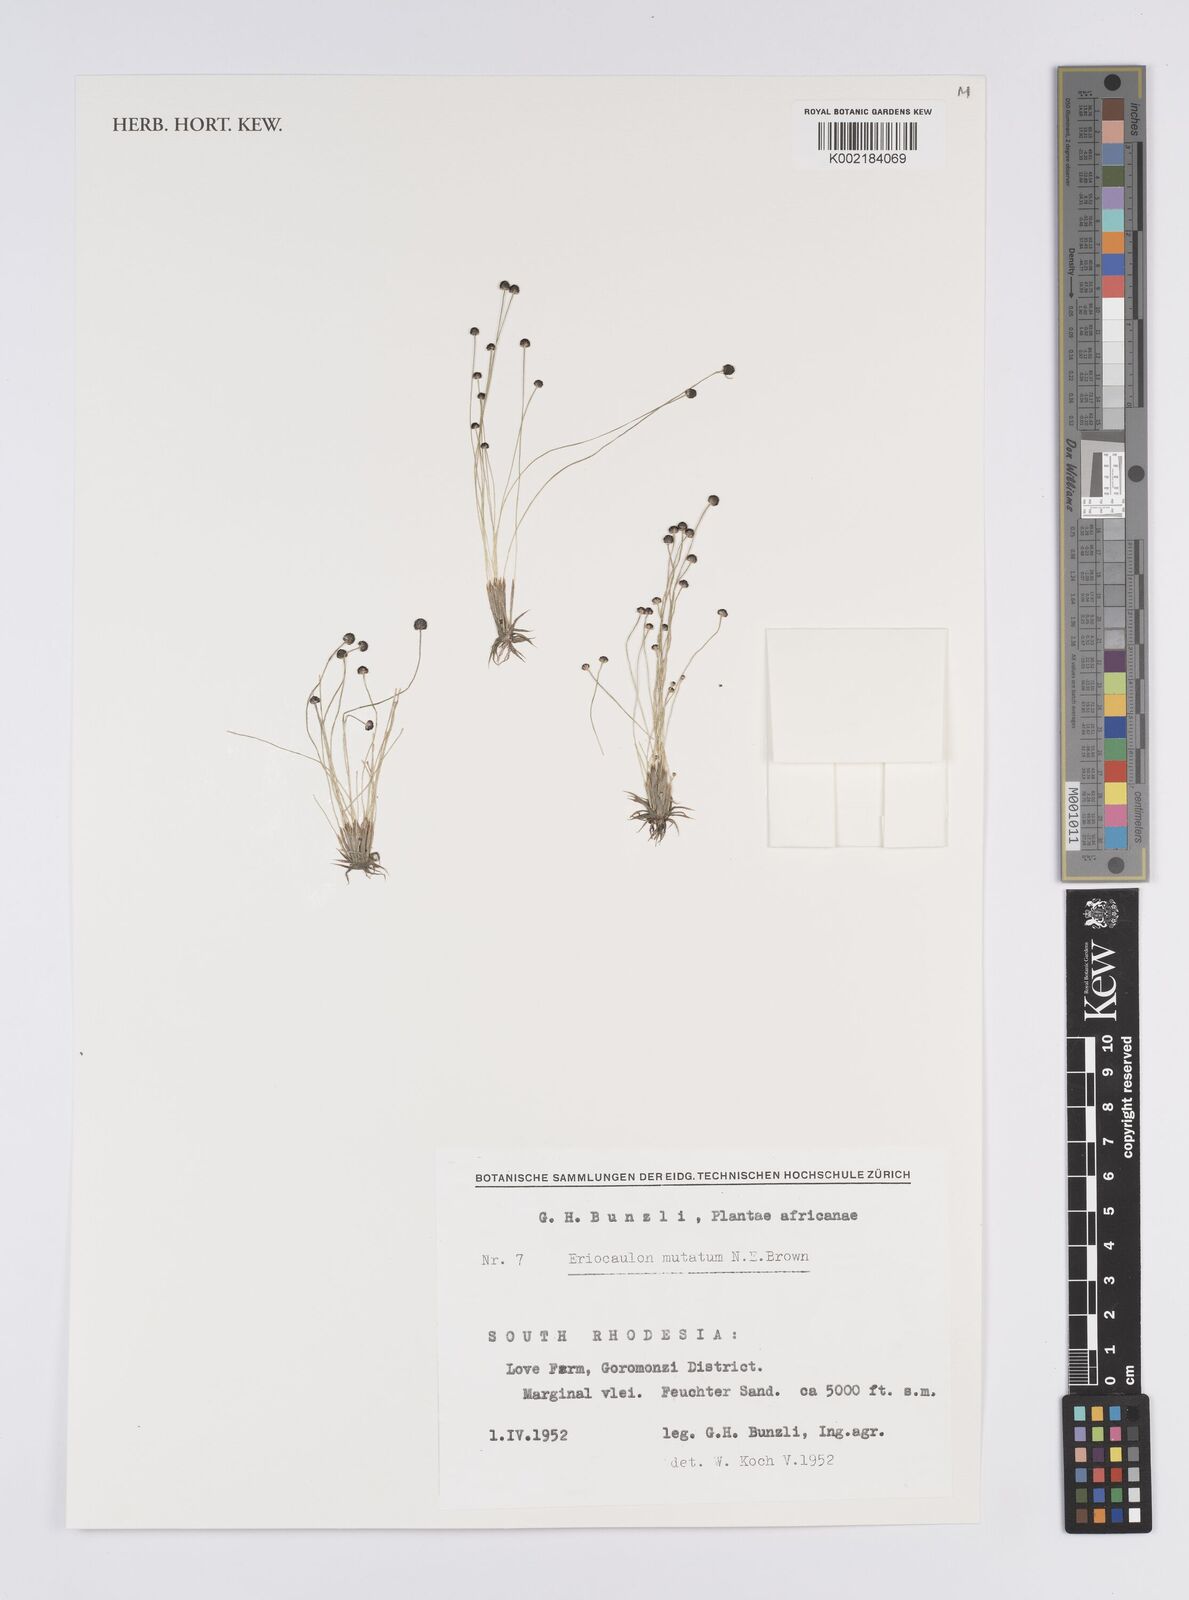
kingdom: Plantae
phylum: Tracheophyta
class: Liliopsida
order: Poales
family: Eriocaulaceae
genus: Eriocaulon
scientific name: Eriocaulon mutatum
